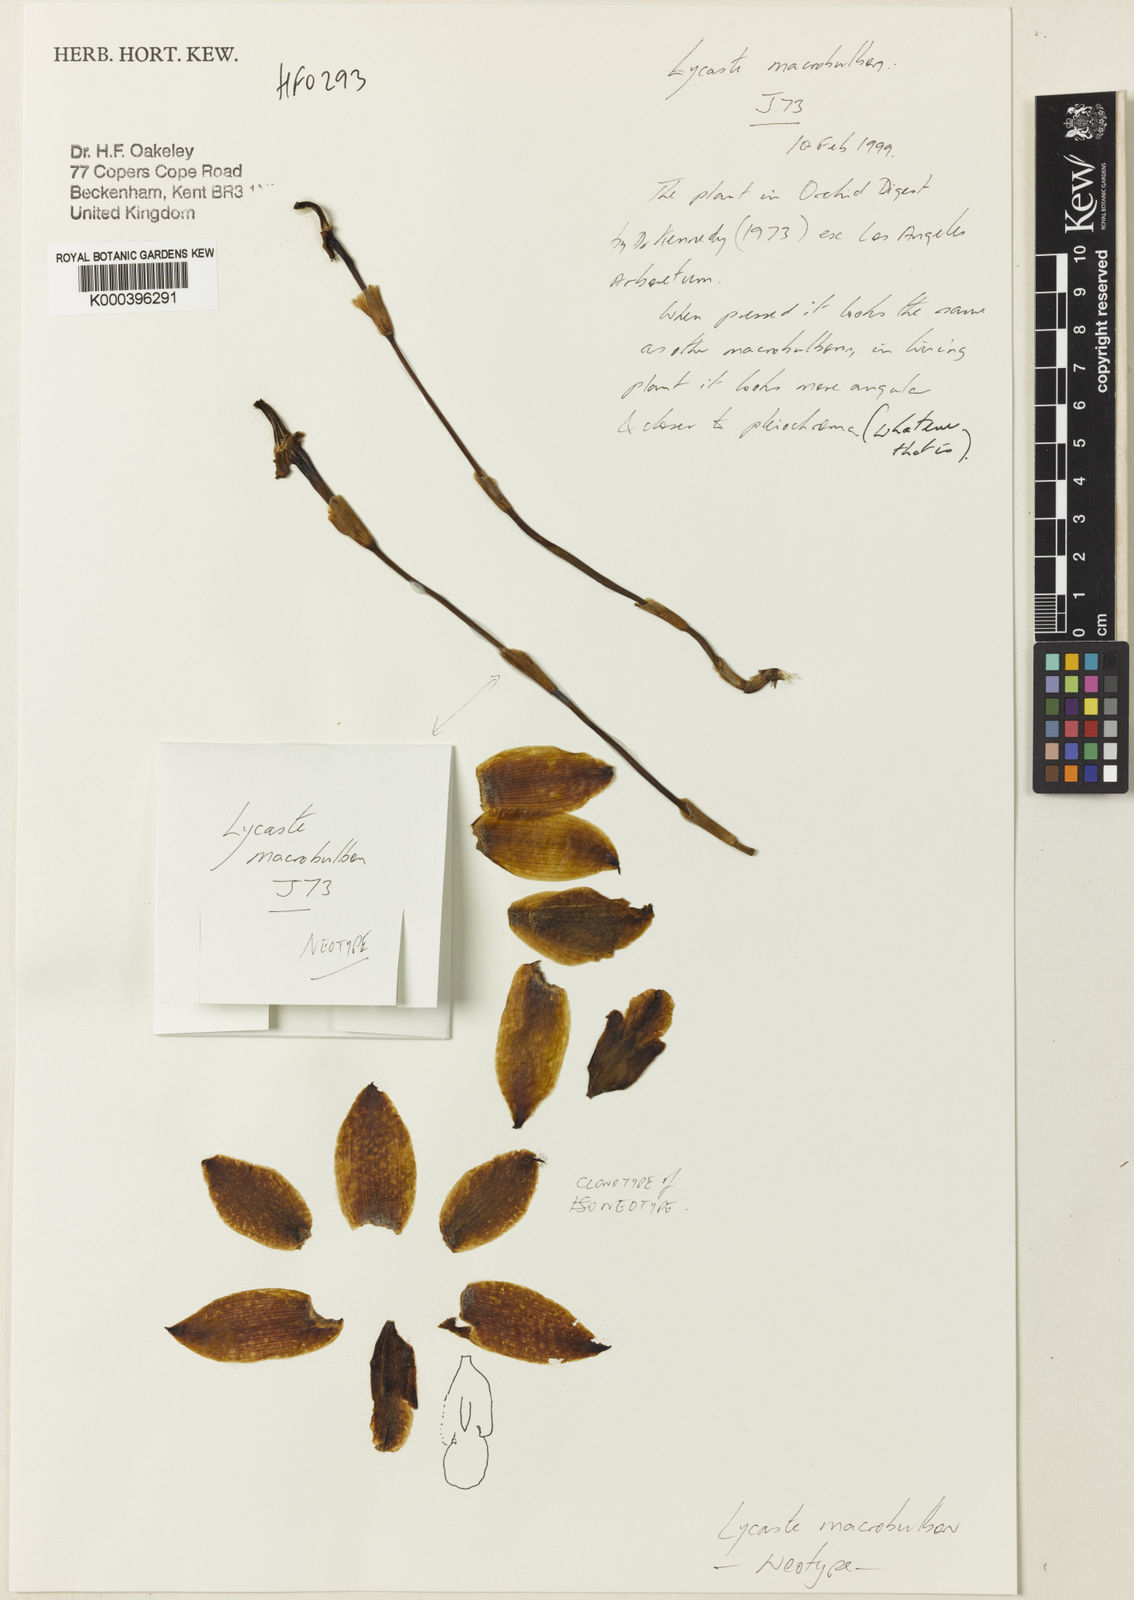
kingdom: Plantae
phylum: Tracheophyta
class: Liliopsida
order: Asparagales
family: Orchidaceae
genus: Lycaste
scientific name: Lycaste macrobulbon
